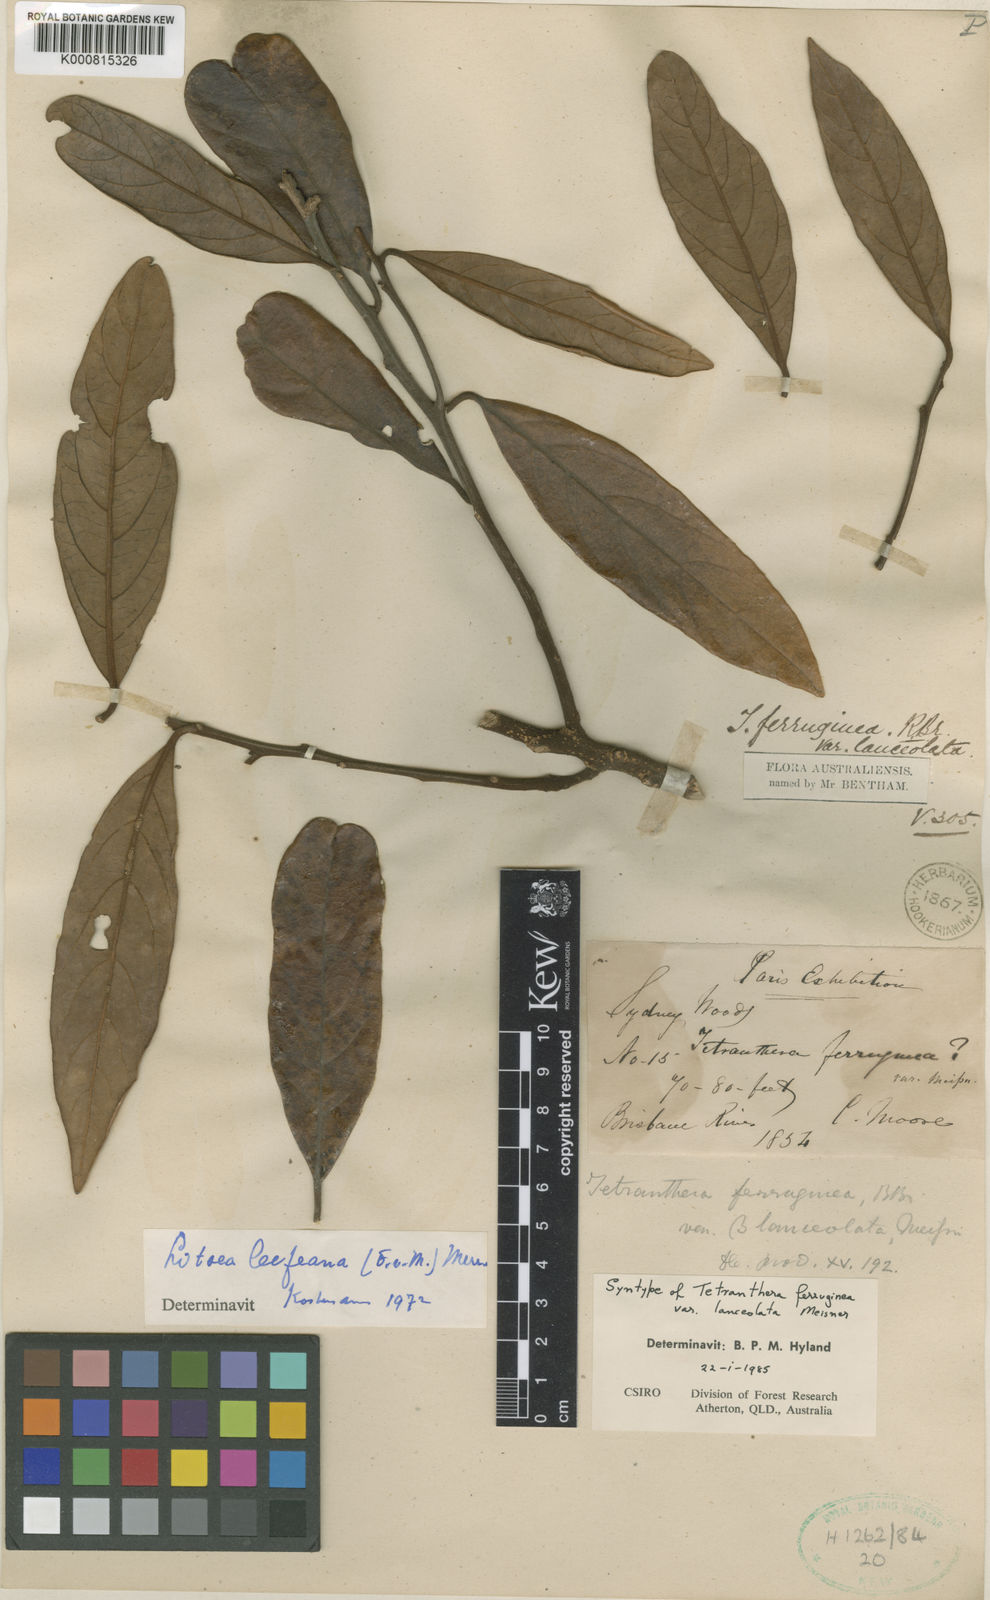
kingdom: Plantae
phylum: Tracheophyta
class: Magnoliopsida
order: Laurales
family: Lauraceae
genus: Litsea
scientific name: Litsea leefeana
